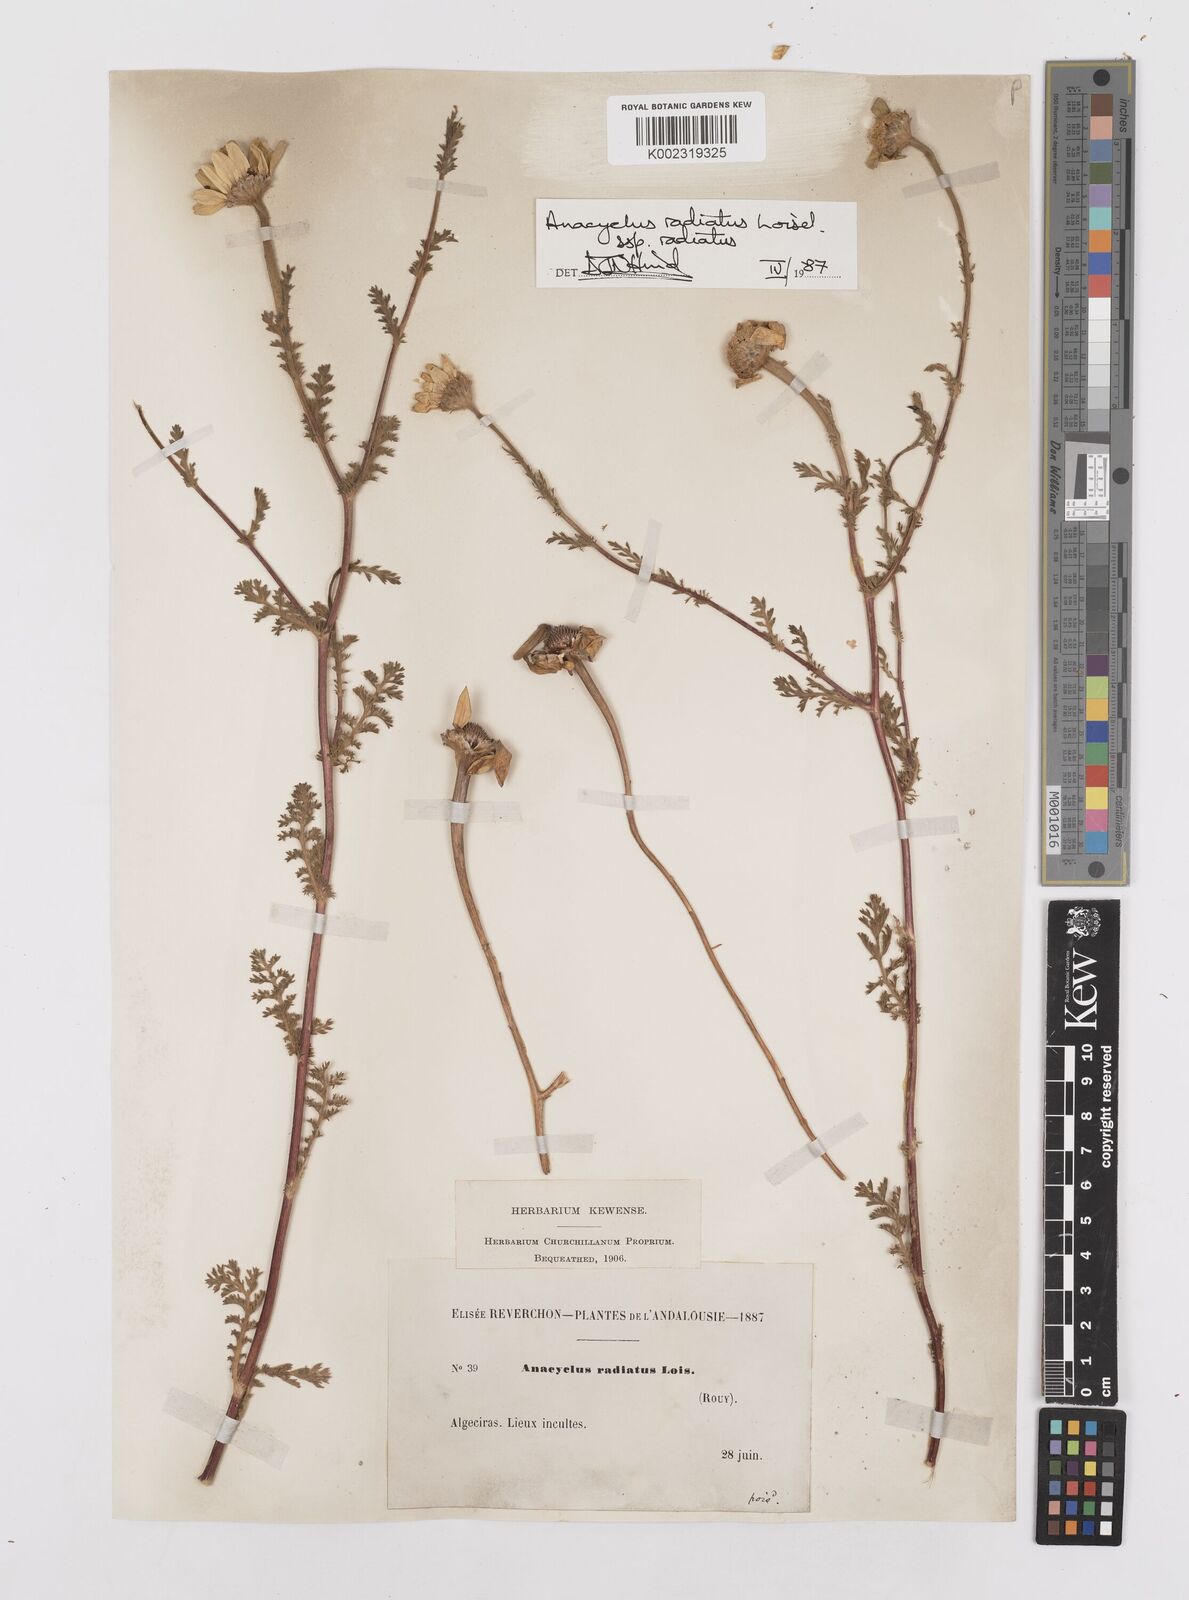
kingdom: Plantae
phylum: Tracheophyta
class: Magnoliopsida
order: Asterales
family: Asteraceae
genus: Anacyclus
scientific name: Anacyclus radiatus
